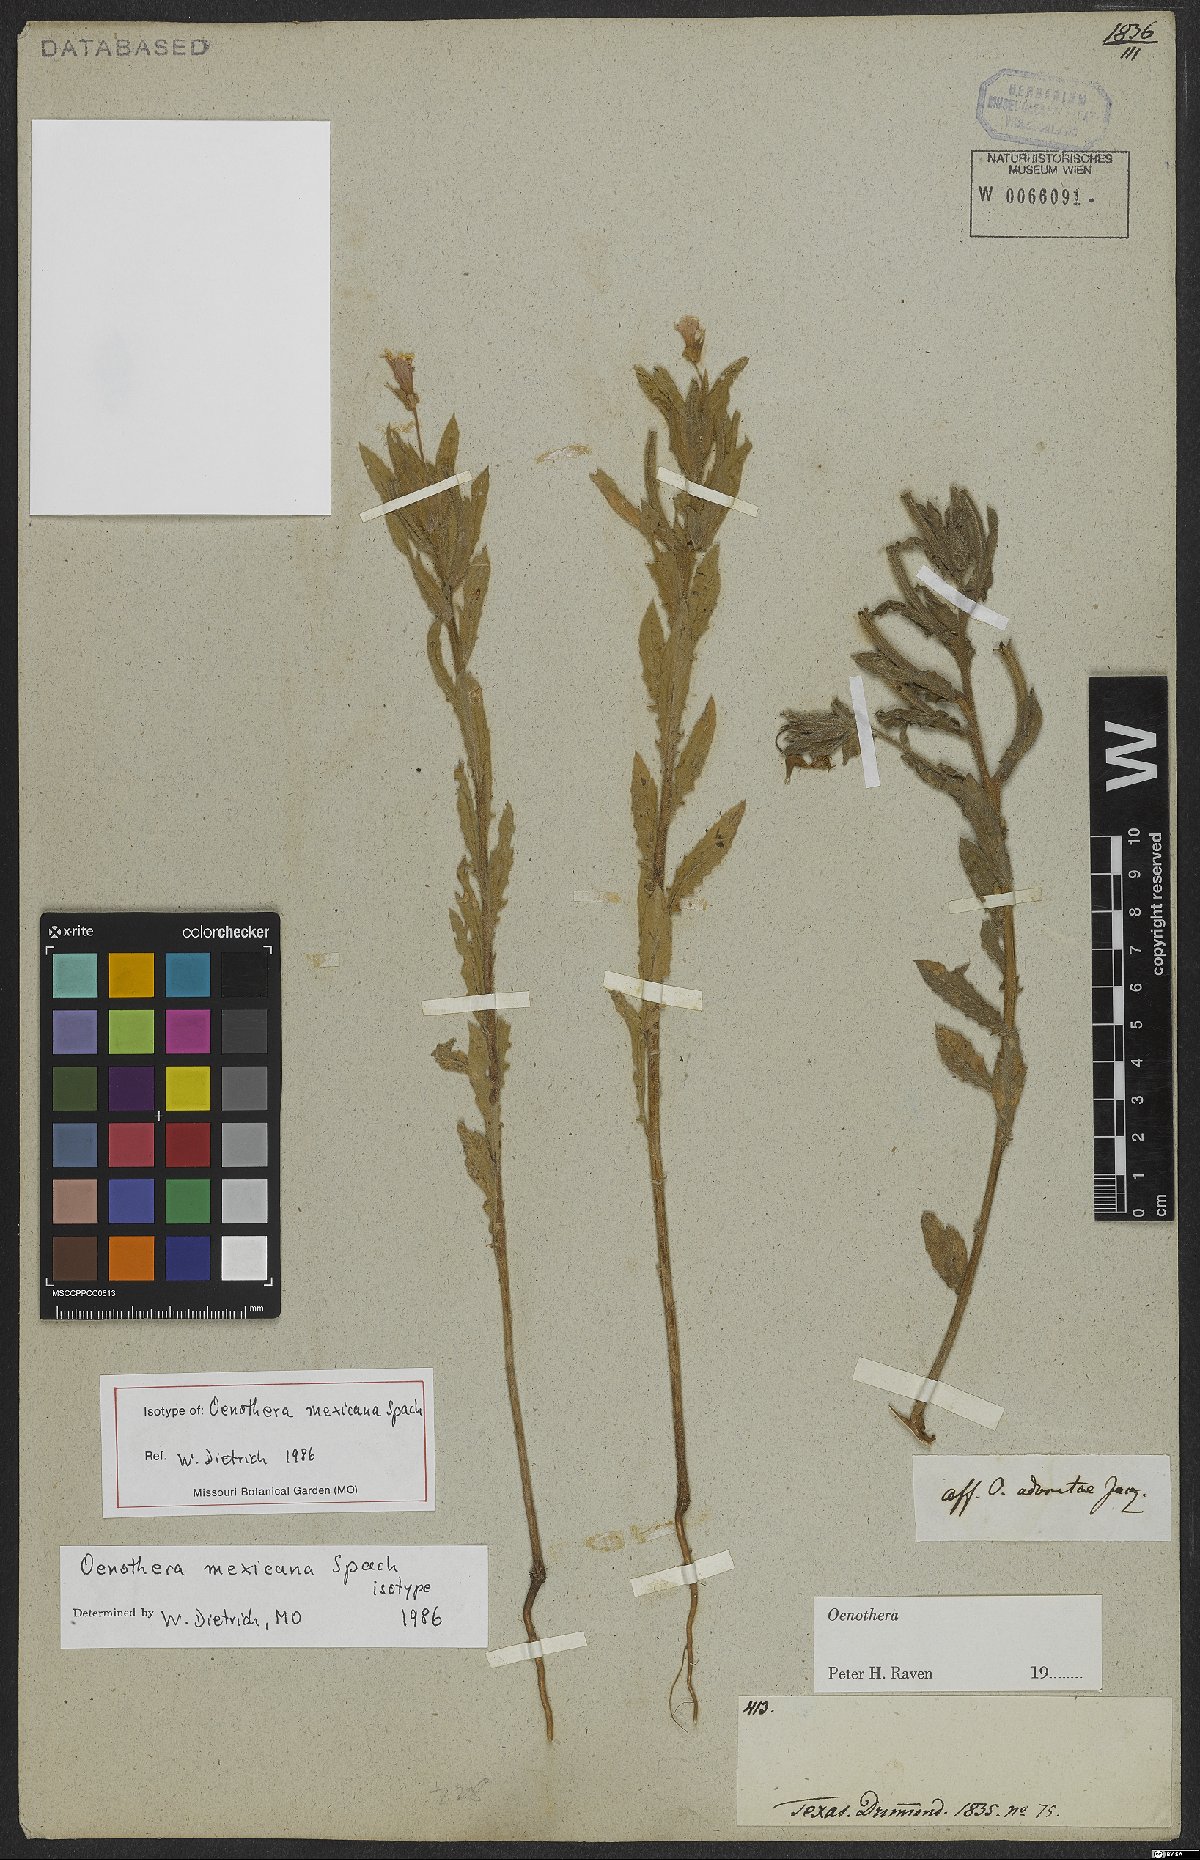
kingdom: Plantae
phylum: Tracheophyta
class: Magnoliopsida
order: Myrtales
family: Onagraceae
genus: Oenothera
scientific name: Oenothera mexicana
